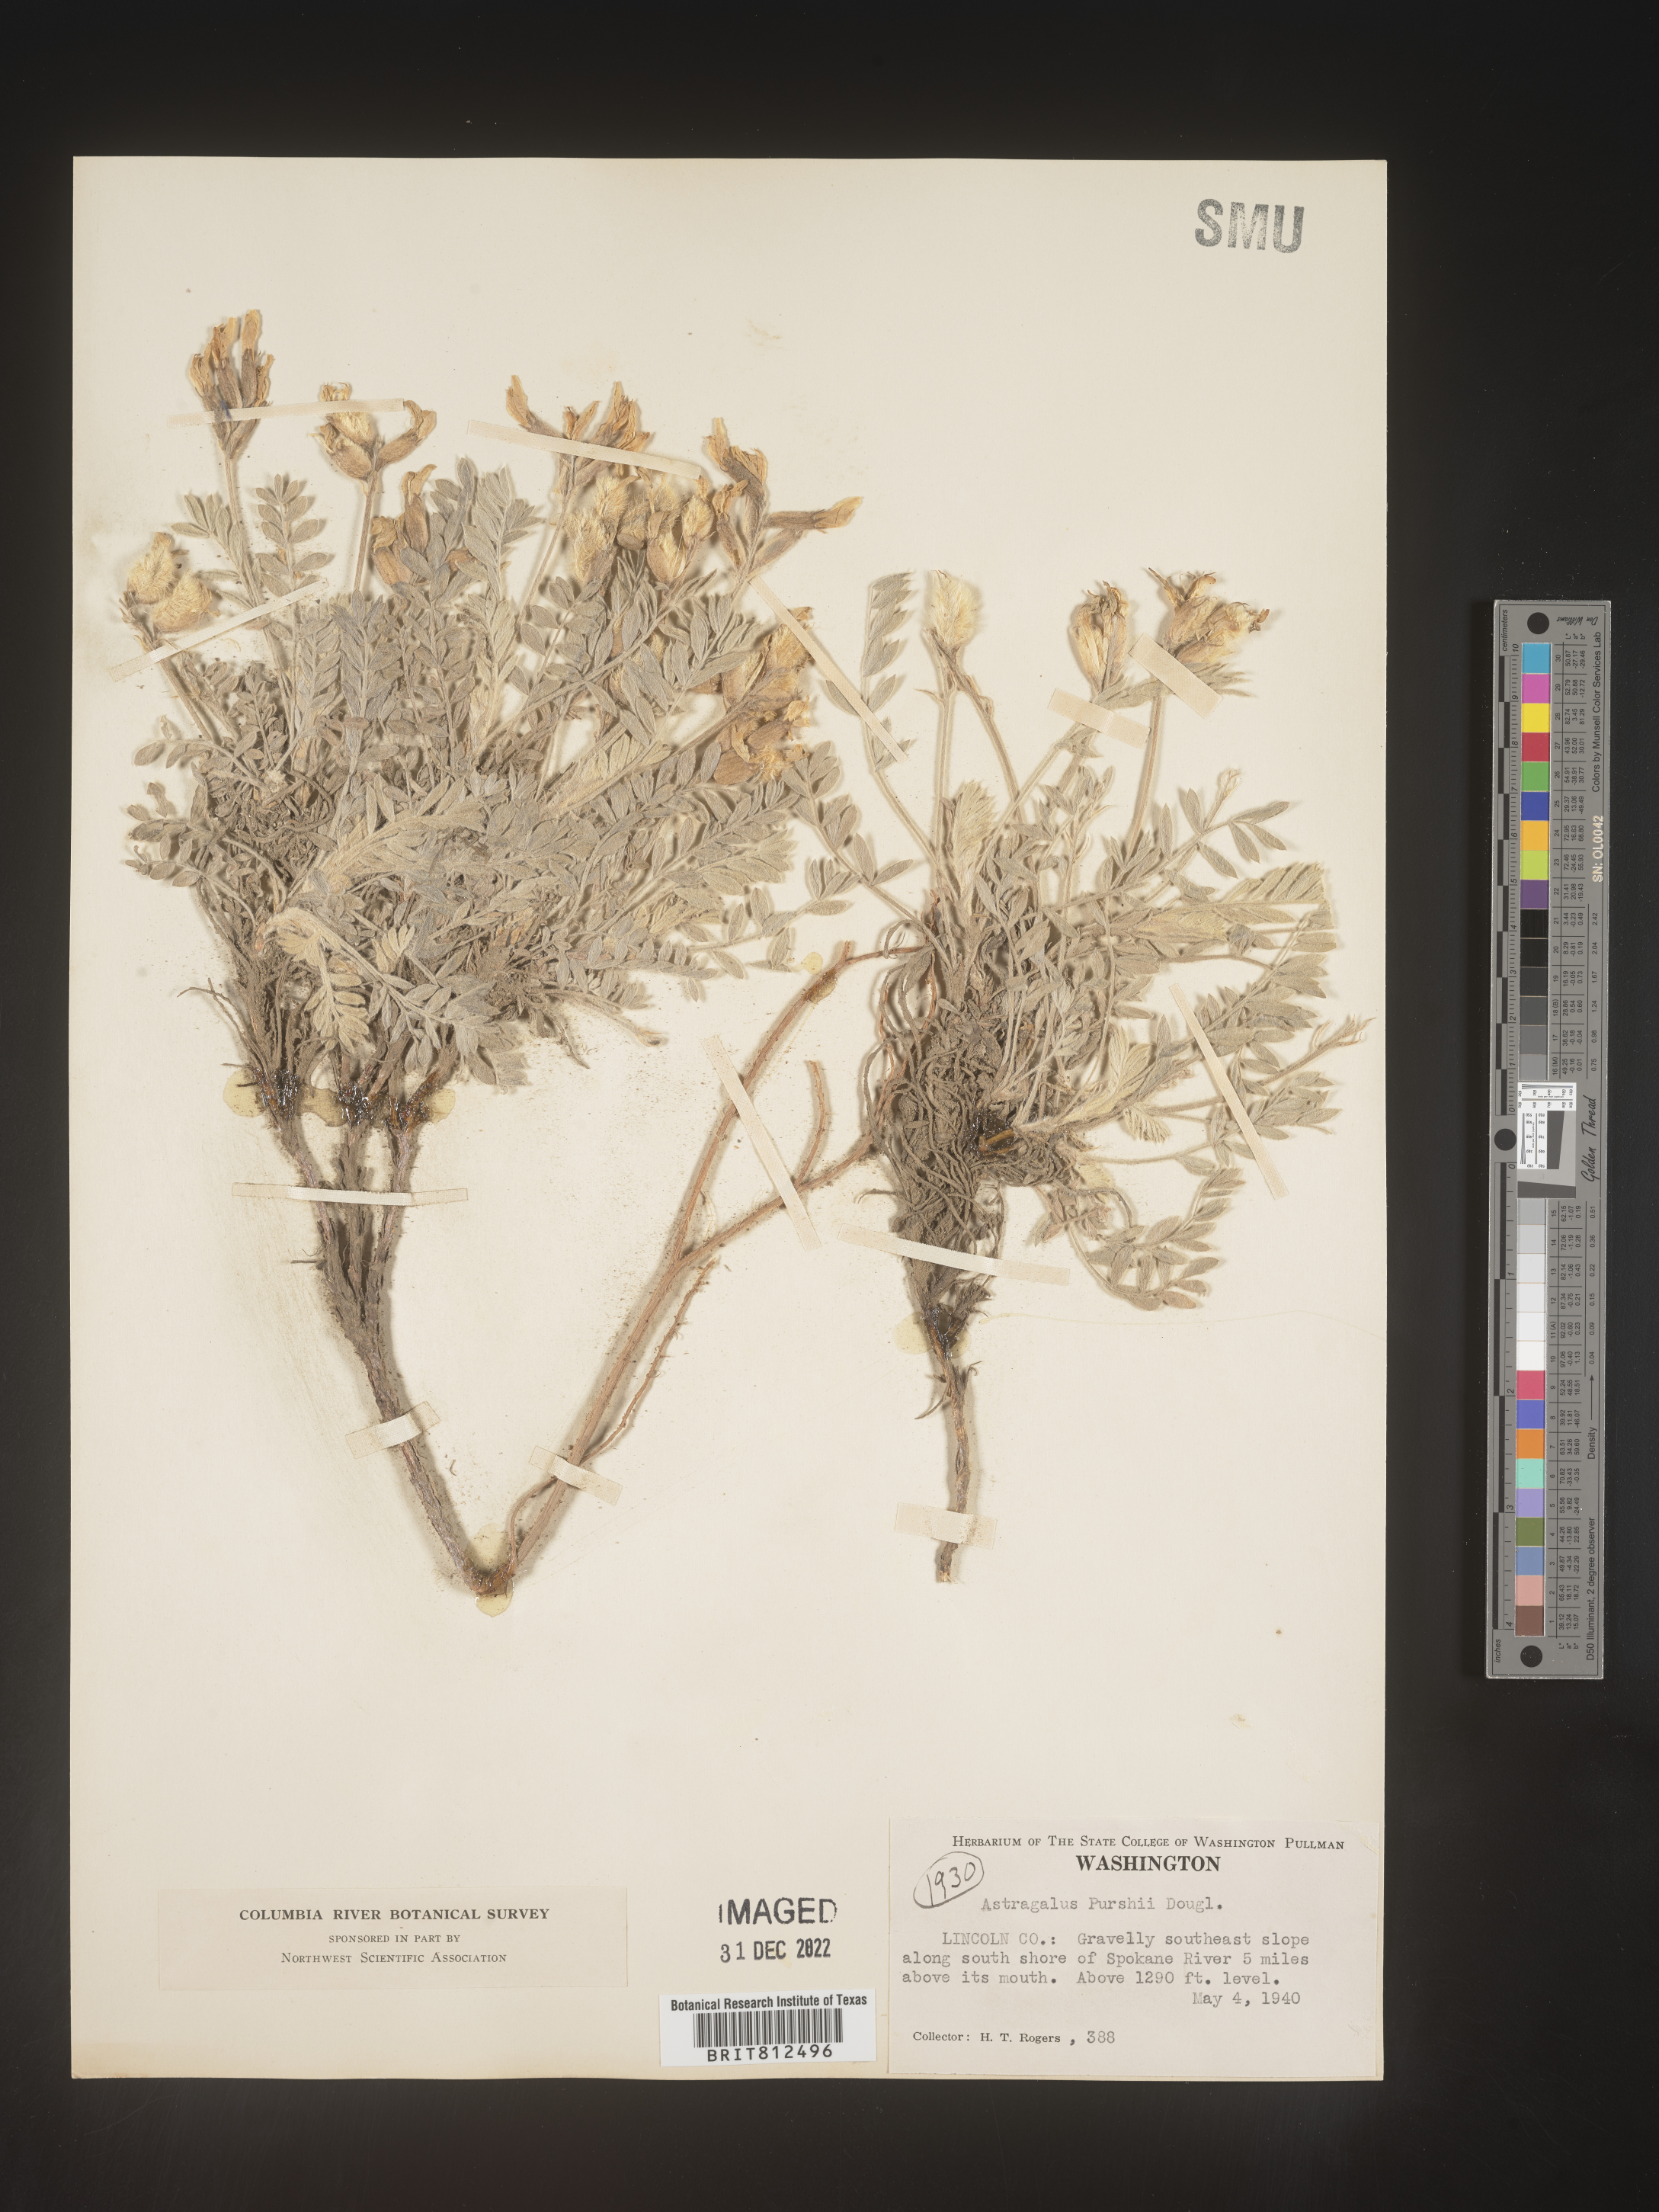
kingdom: Plantae
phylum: Tracheophyta
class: Magnoliopsida
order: Fabales
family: Fabaceae
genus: Astragalus
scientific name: Astragalus leucolobus
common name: Big bear valley woollypod
